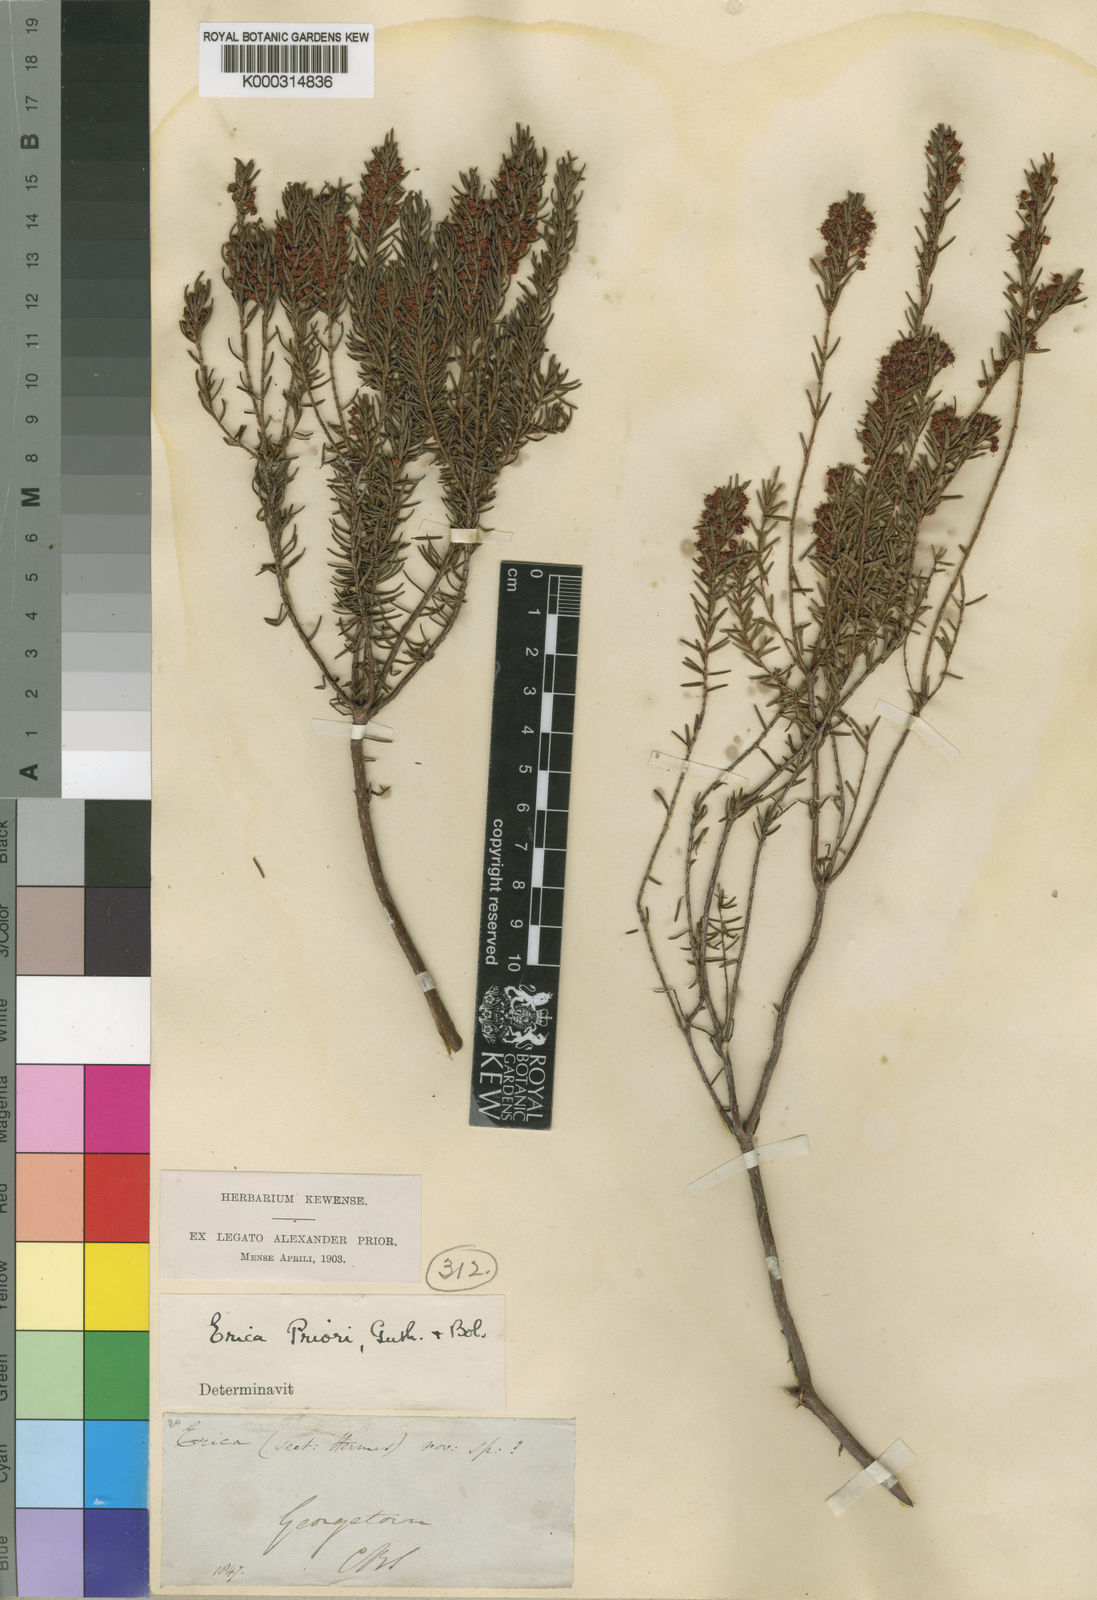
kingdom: Plantae
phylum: Tracheophyta
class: Magnoliopsida
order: Ericales
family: Ericaceae
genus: Erica
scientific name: Erica priori
